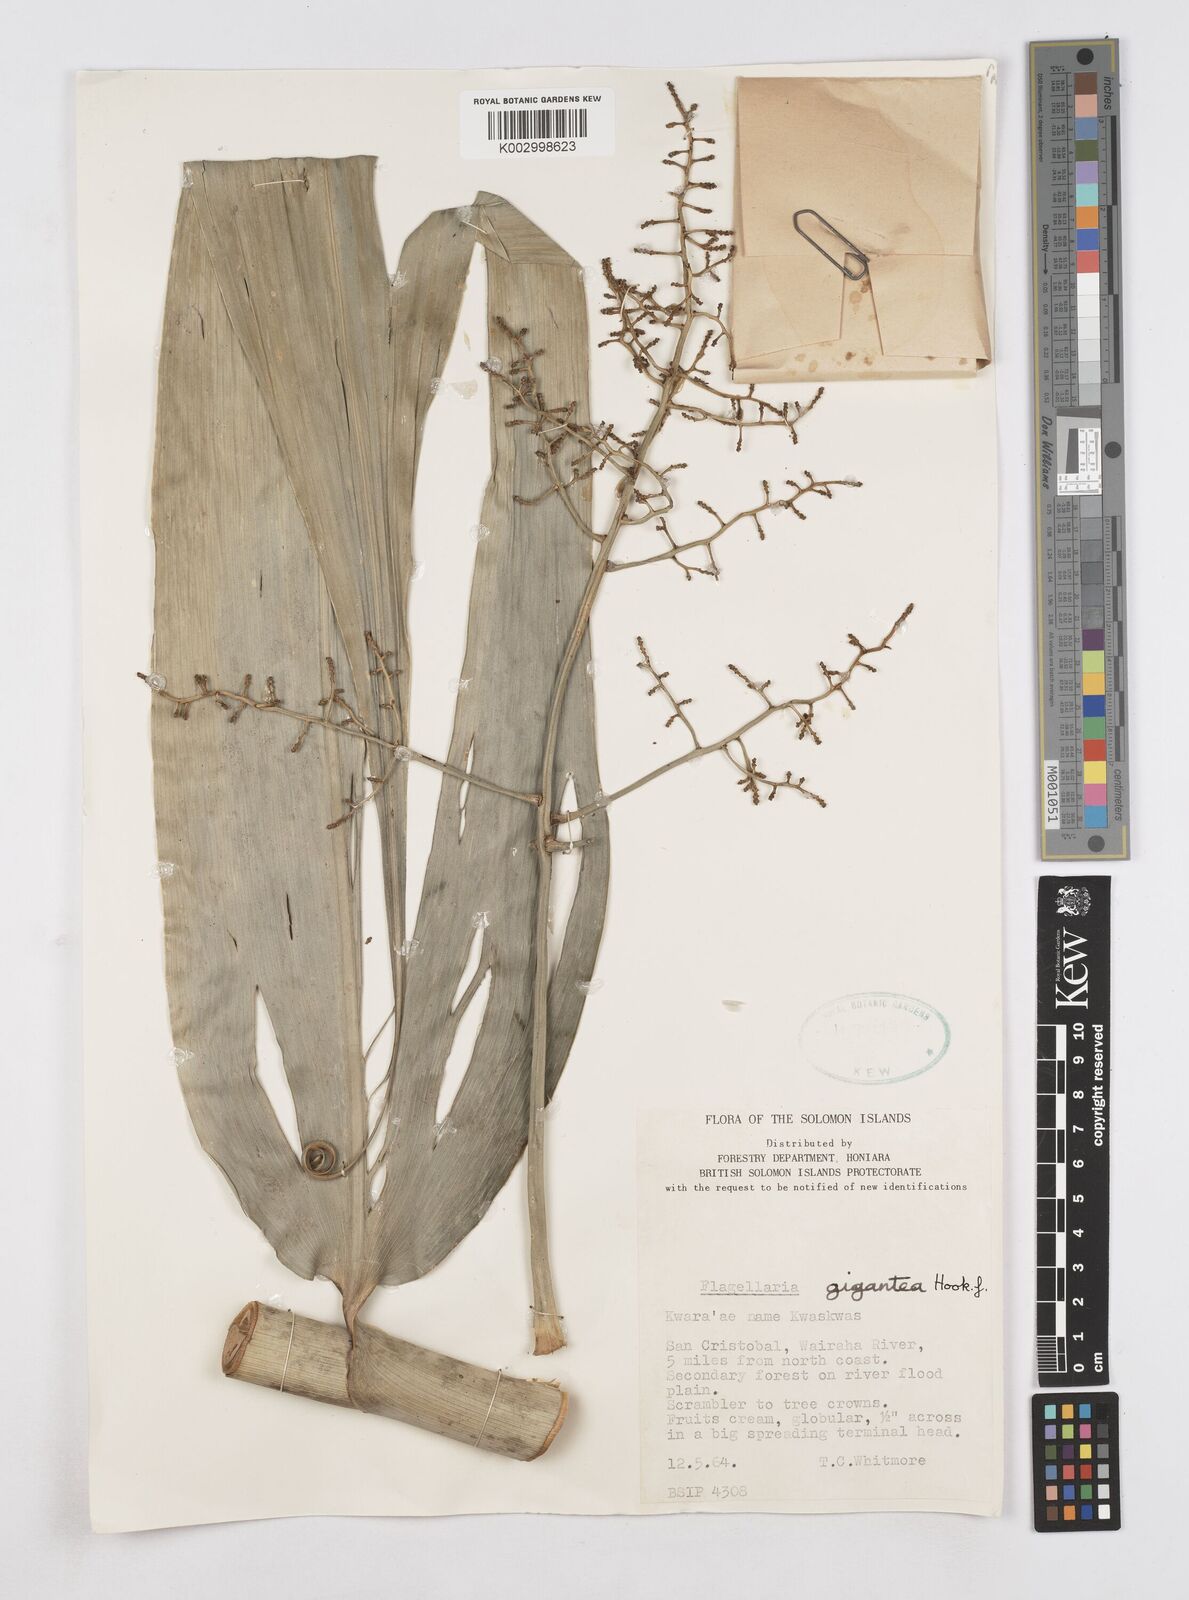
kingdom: Plantae
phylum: Tracheophyta
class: Liliopsida
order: Poales
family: Flagellariaceae
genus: Flagellaria
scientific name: Flagellaria gigantea
